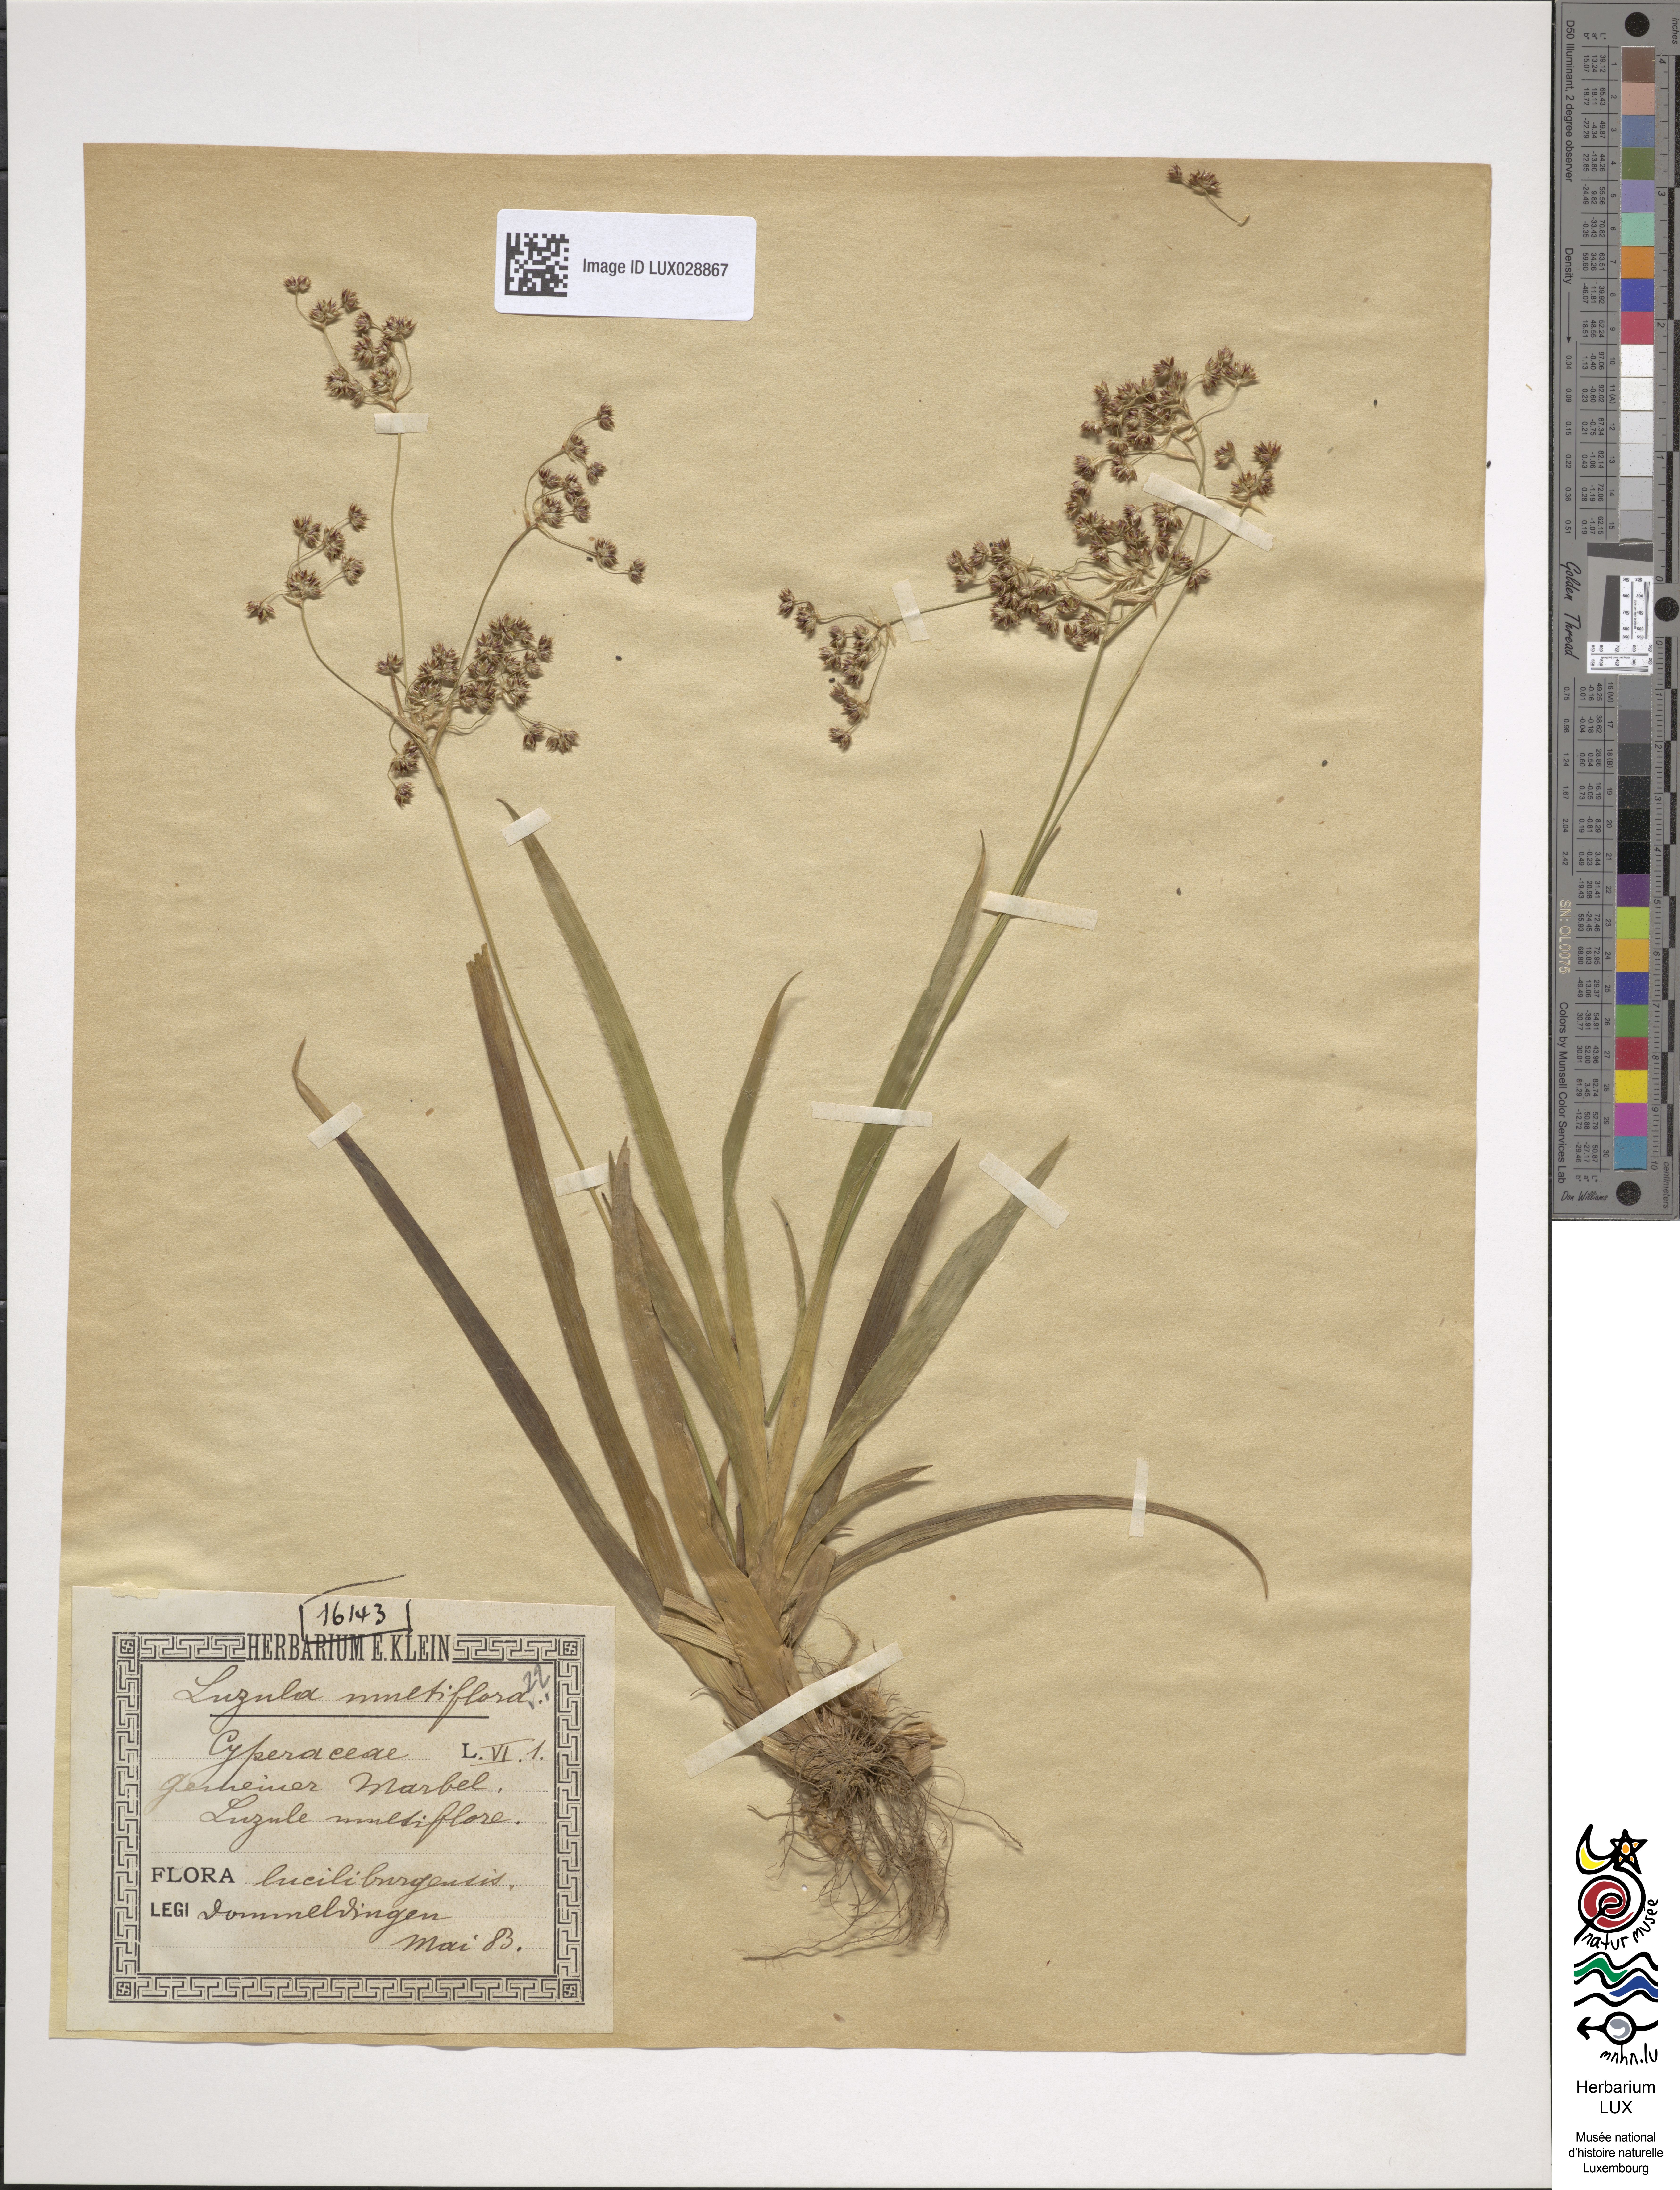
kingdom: Plantae
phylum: Tracheophyta
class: Liliopsida
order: Poales
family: Juncaceae
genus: Luzula
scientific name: Luzula multiflora
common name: Heath wood-rush
